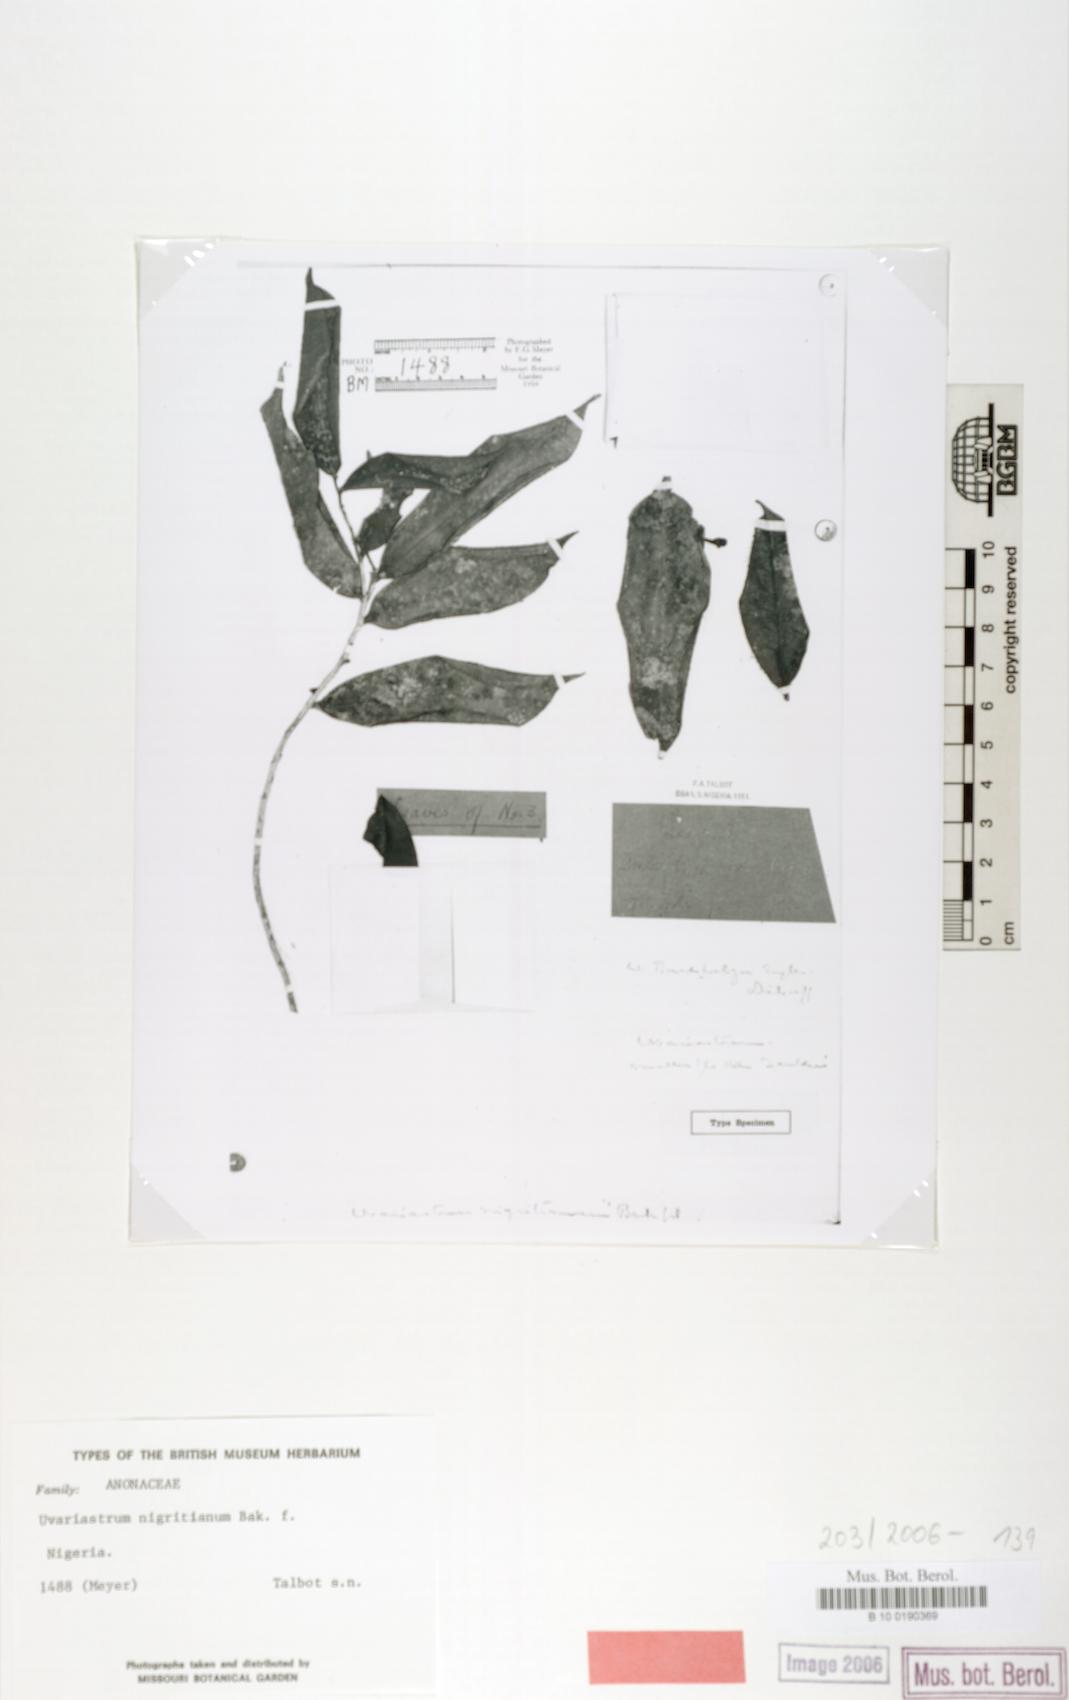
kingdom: Plantae
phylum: Tracheophyta
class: Magnoliopsida
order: Magnoliales
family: Annonaceae
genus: Uvariastrum
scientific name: Uvariastrum
